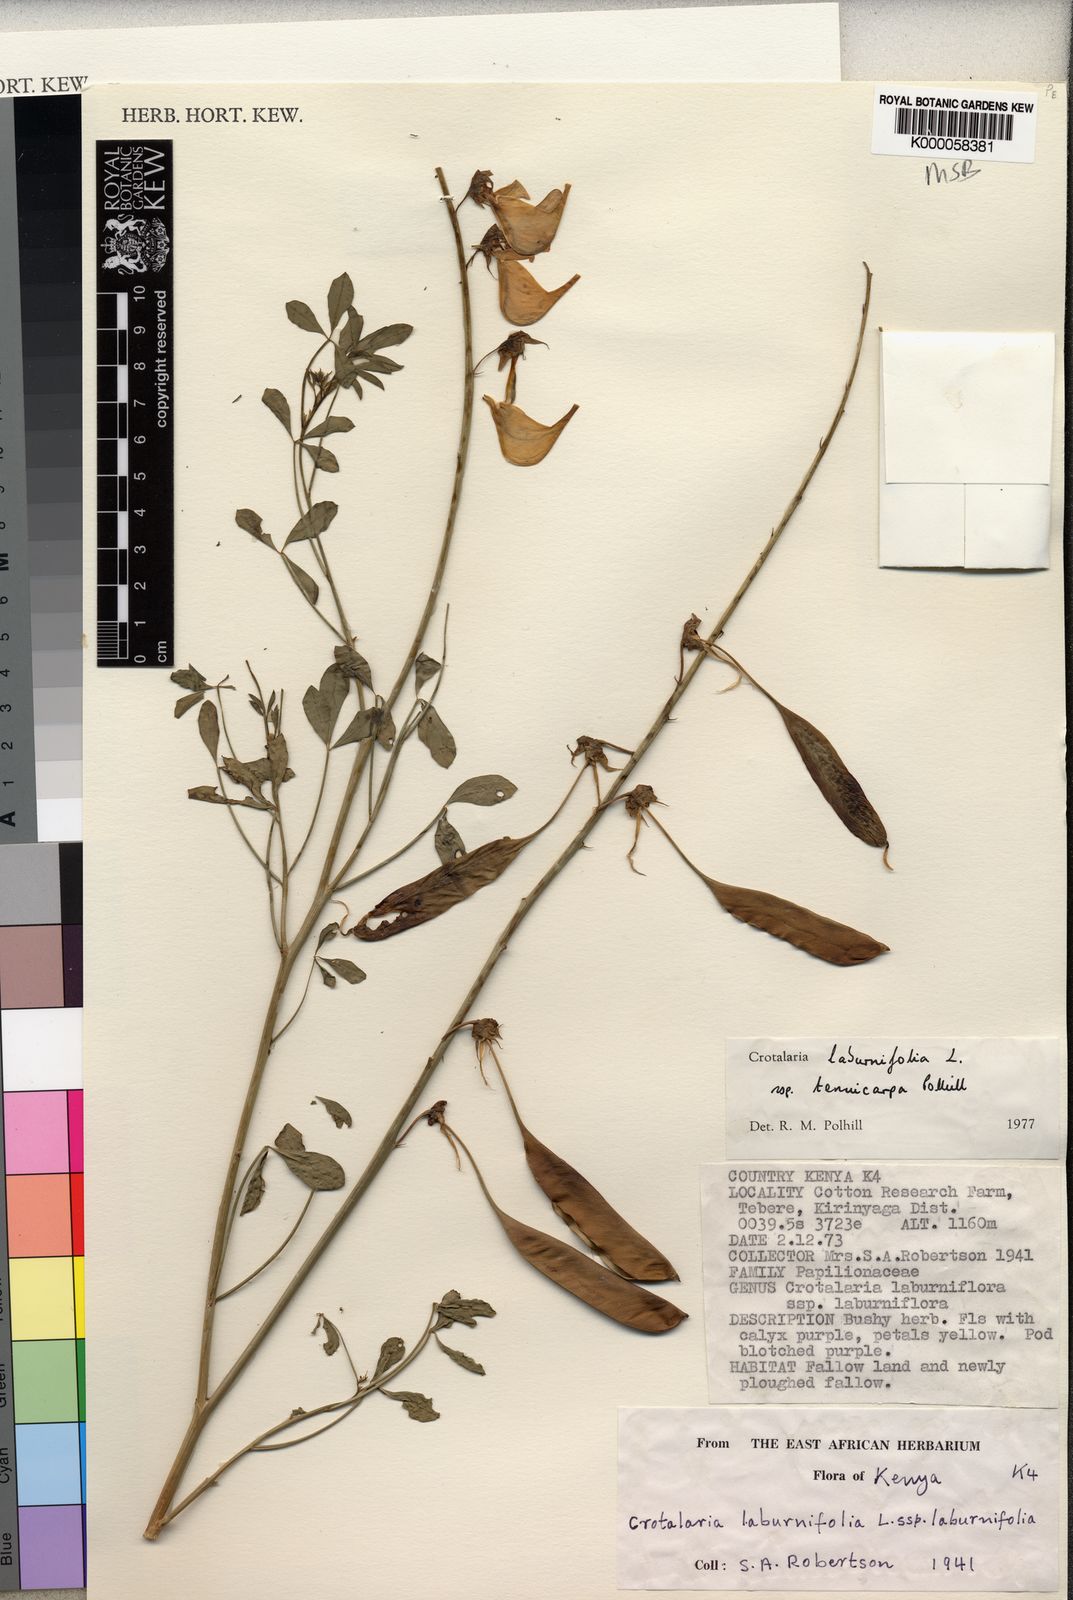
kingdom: Plantae
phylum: Tracheophyta
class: Magnoliopsida
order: Fabales
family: Fabaceae
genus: Crotalaria
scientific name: Crotalaria laburnifolia
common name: Birdflower
